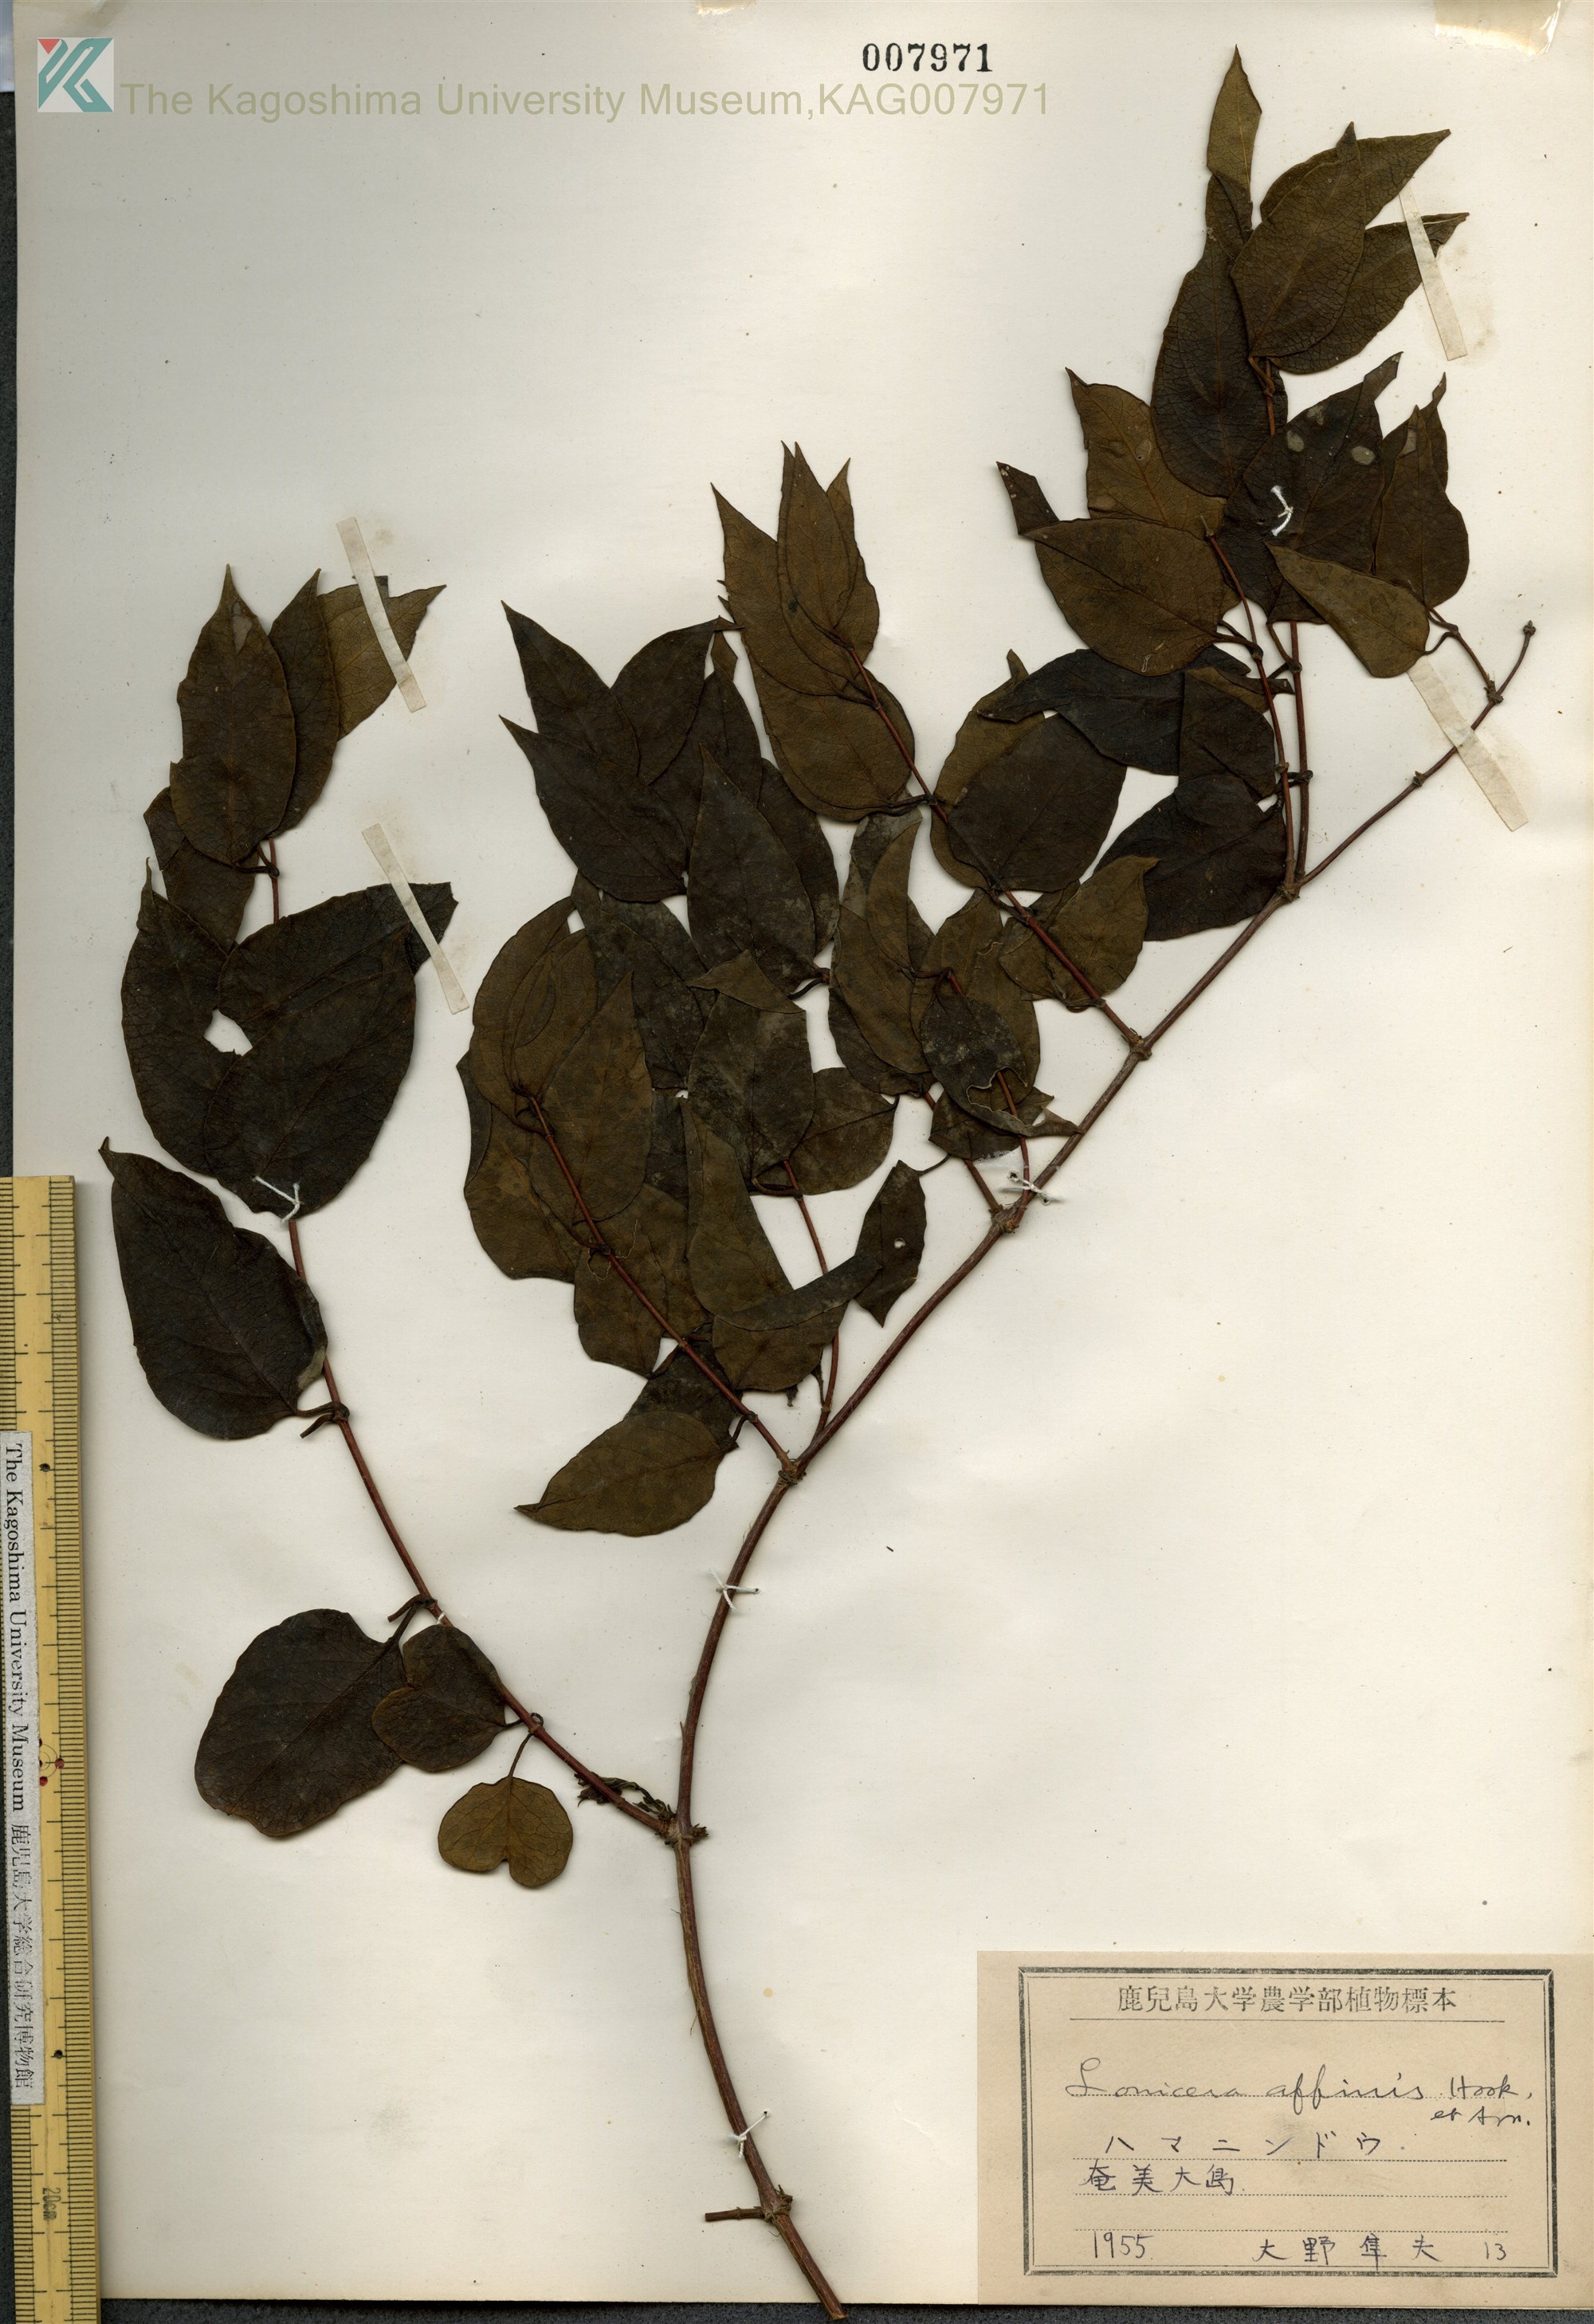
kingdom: Plantae
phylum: Tracheophyta
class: Magnoliopsida
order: Dipsacales
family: Caprifoliaceae
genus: Lonicera
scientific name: Lonicera affinis
